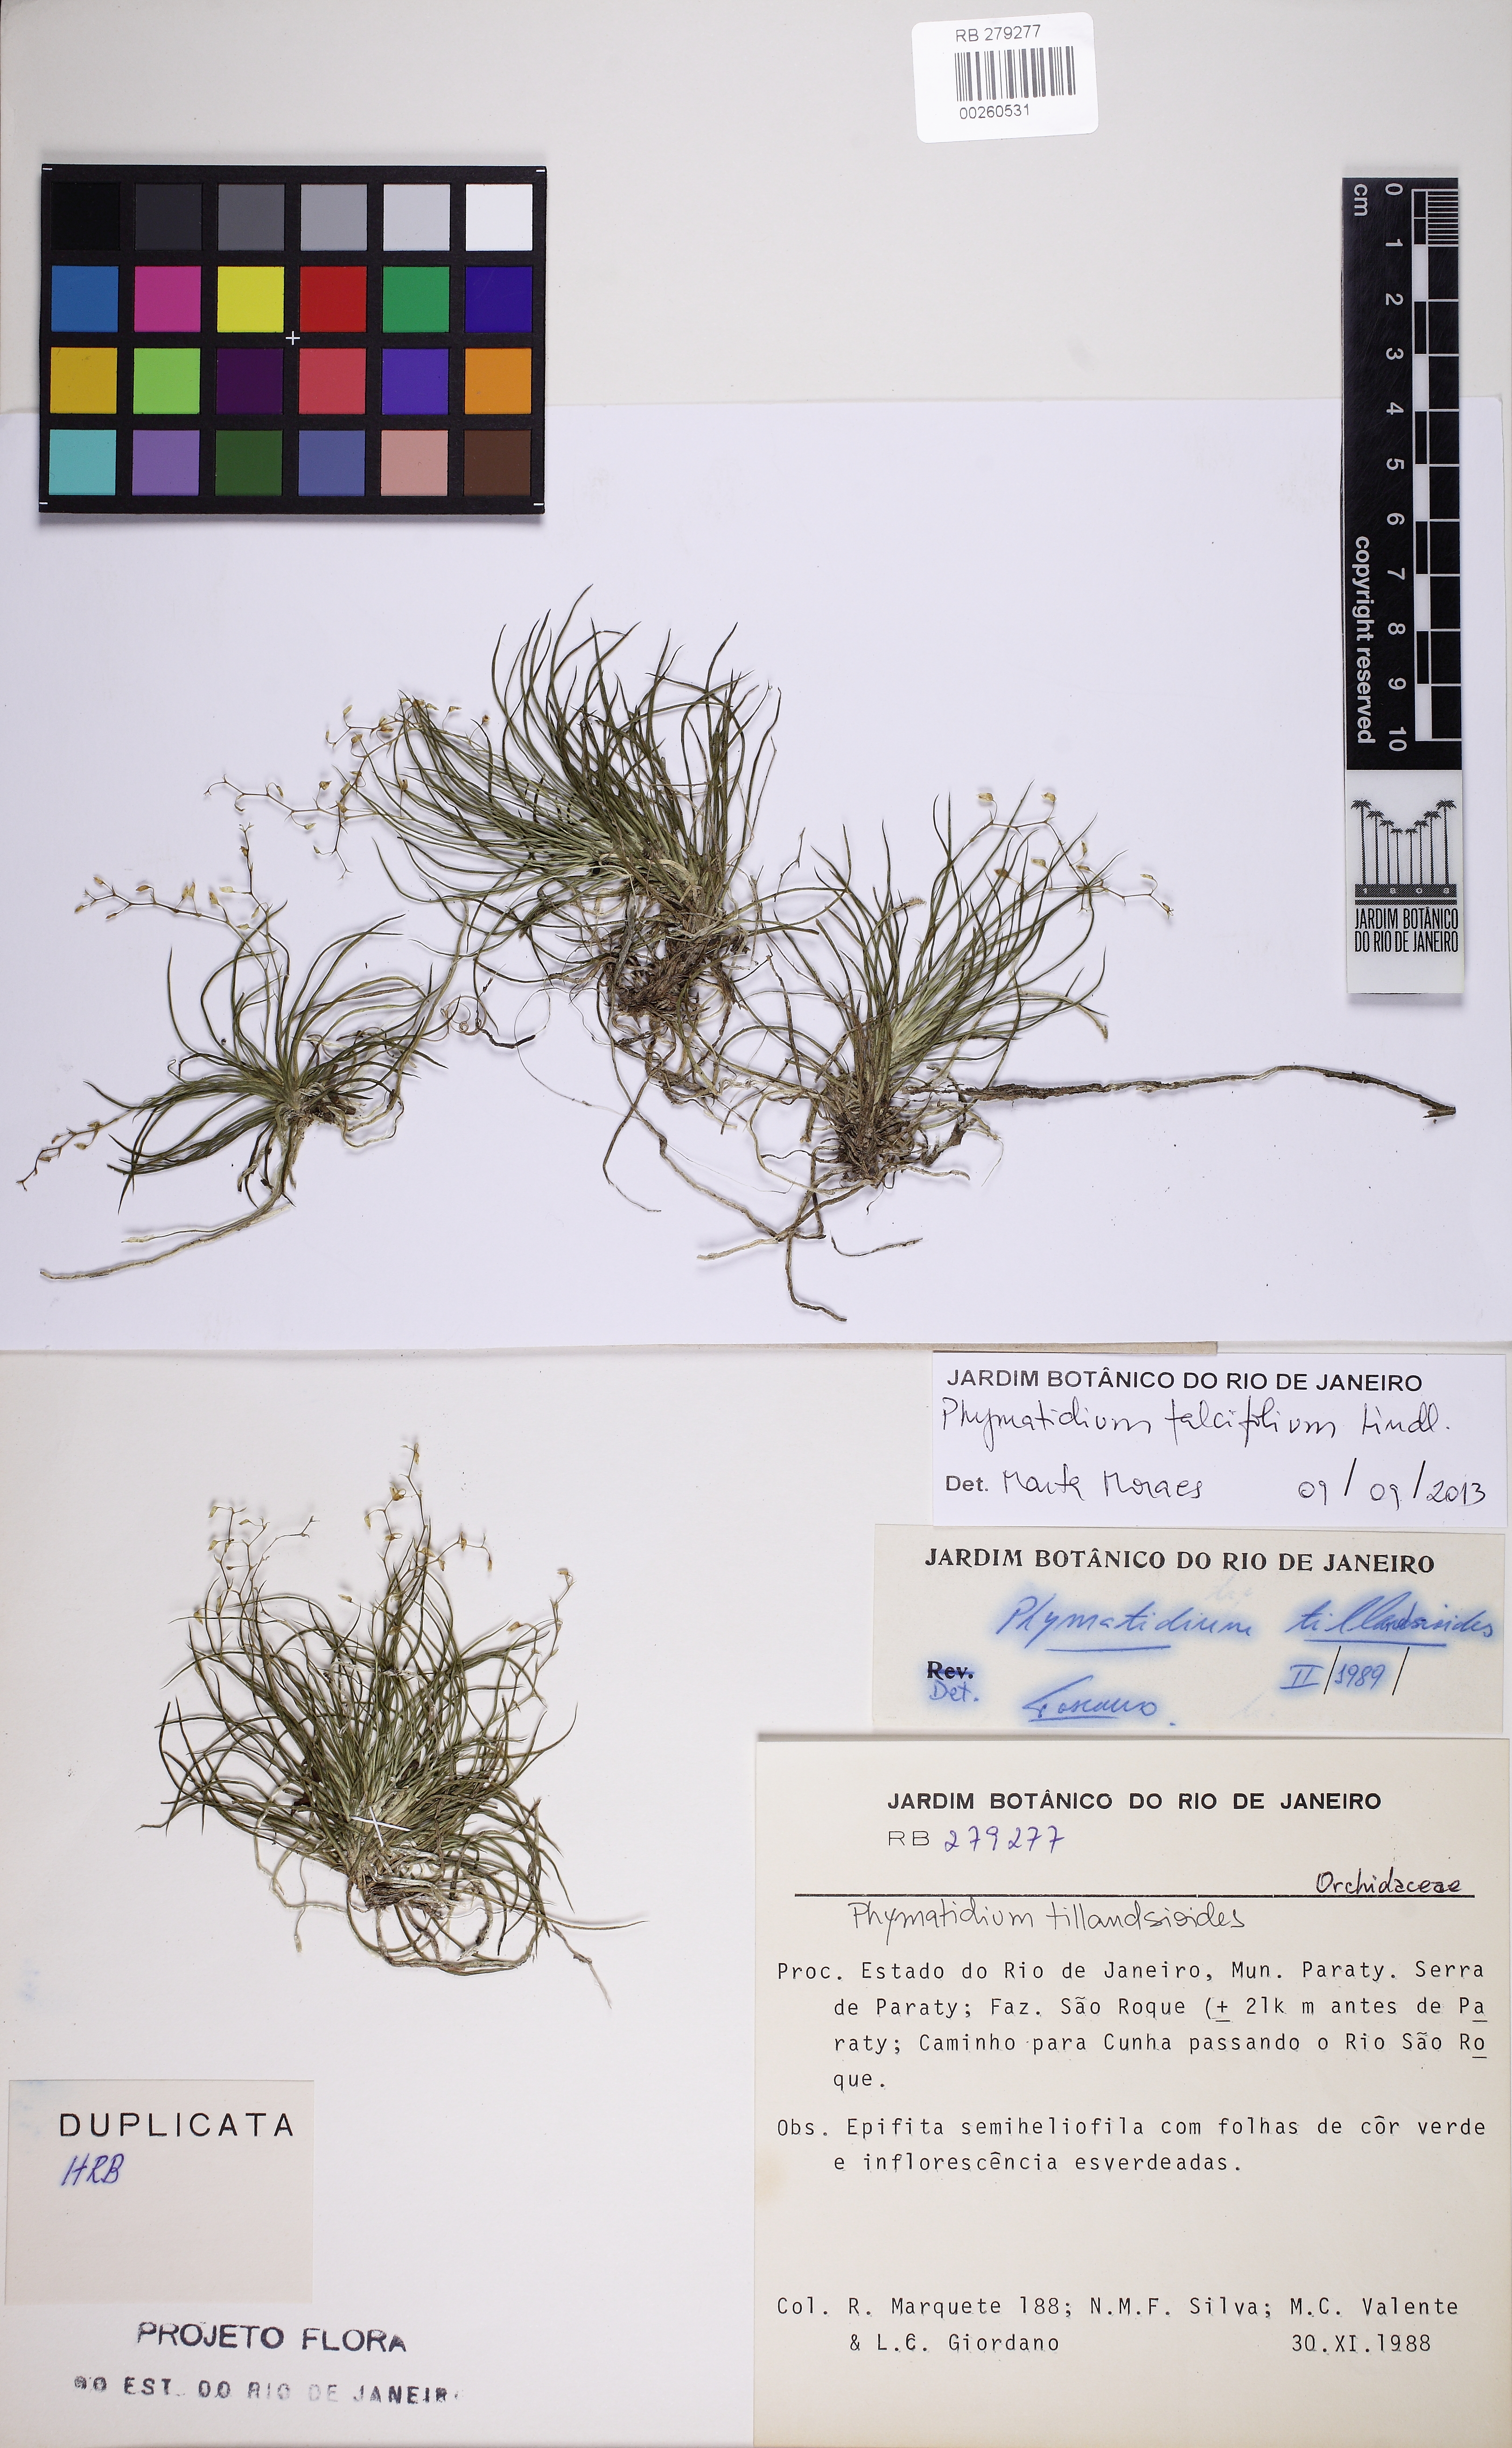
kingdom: Plantae
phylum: Tracheophyta
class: Liliopsida
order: Asparagales
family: Orchidaceae
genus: Phymatidium
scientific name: Phymatidium falcifolium
